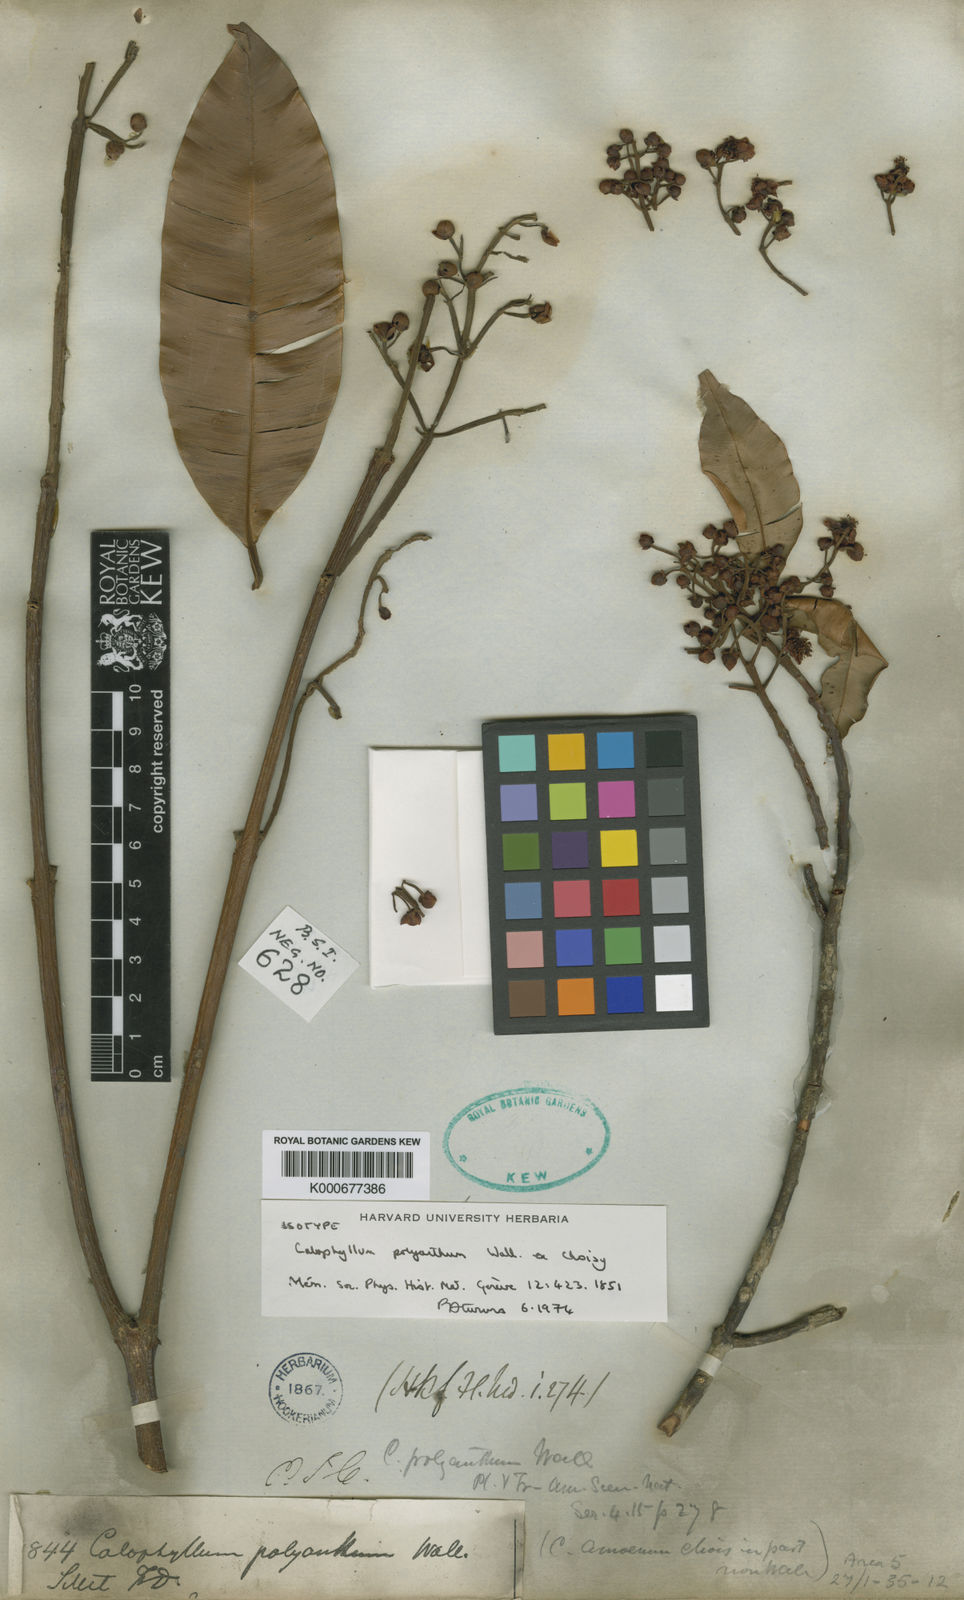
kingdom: Plantae
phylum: Tracheophyta
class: Magnoliopsida
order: Malpighiales
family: Calophyllaceae
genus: Calophyllum
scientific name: Calophyllum polyanthum
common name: Poonspar
